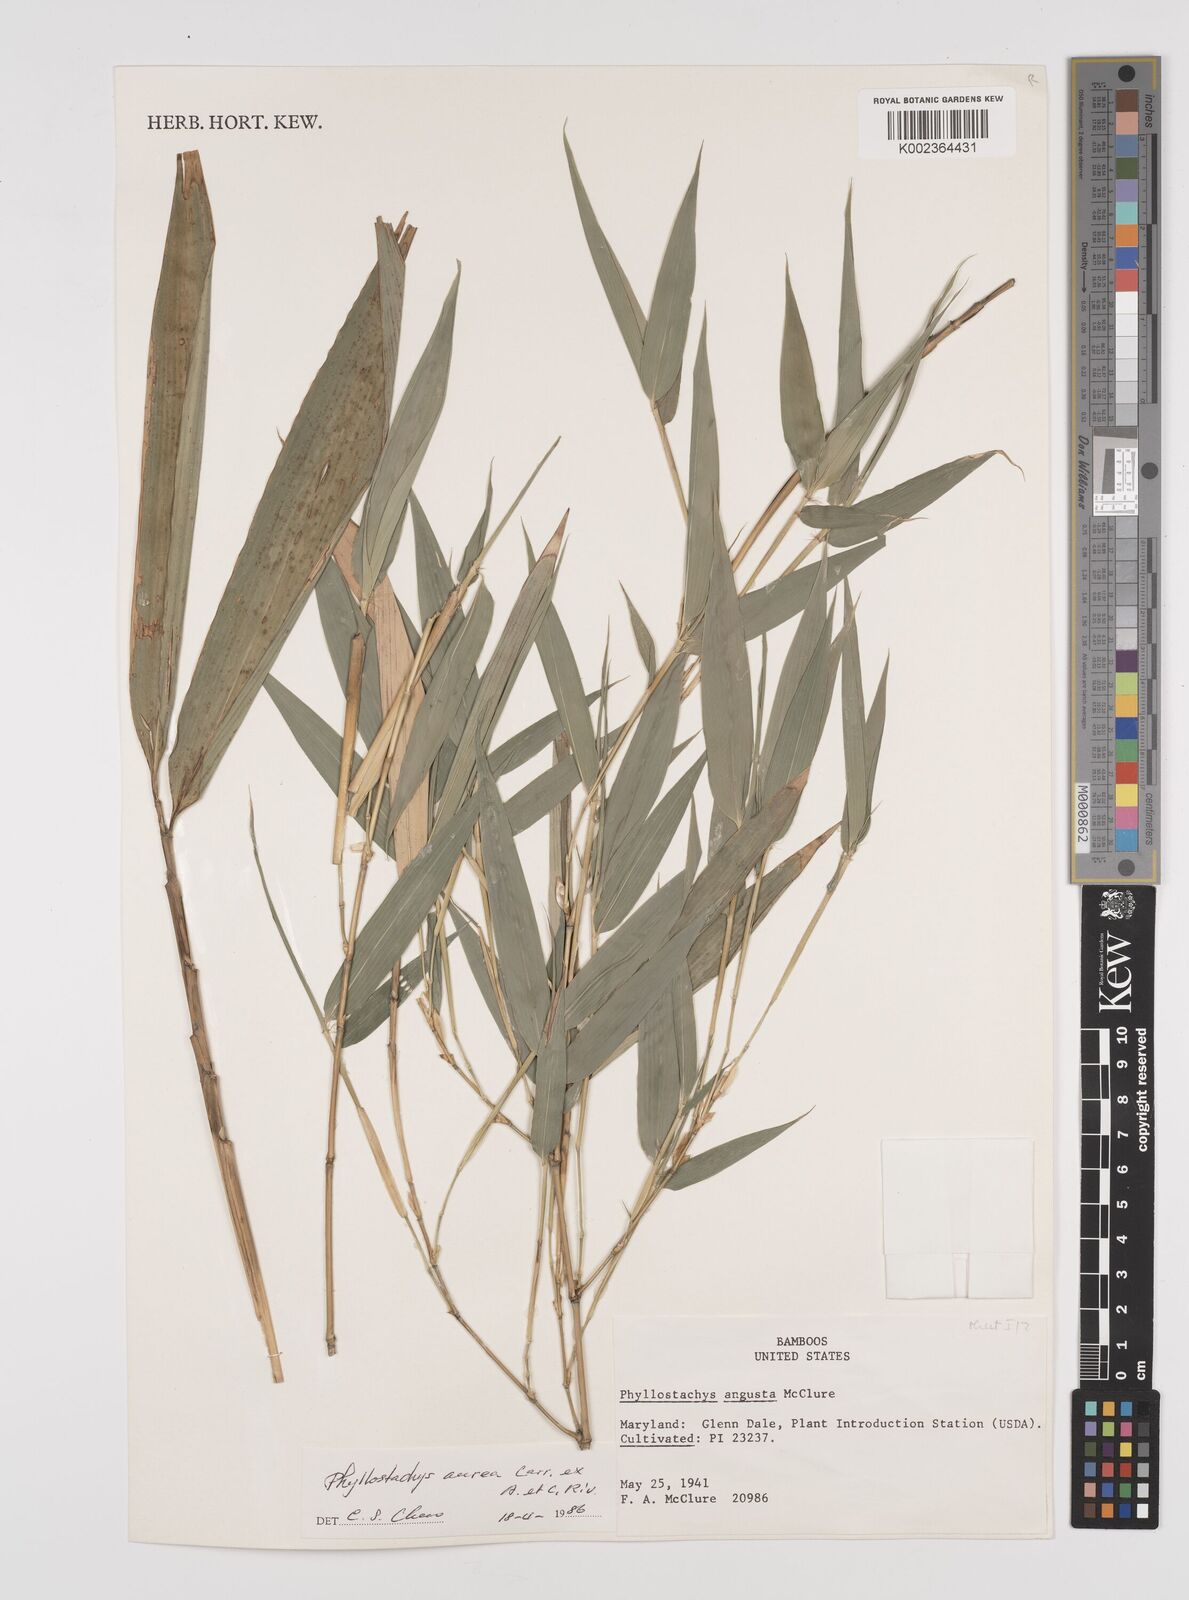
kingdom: Plantae
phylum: Tracheophyta
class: Liliopsida
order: Poales
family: Poaceae
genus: Phyllostachys
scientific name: Phyllostachys aurea
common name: Golden bamboo
